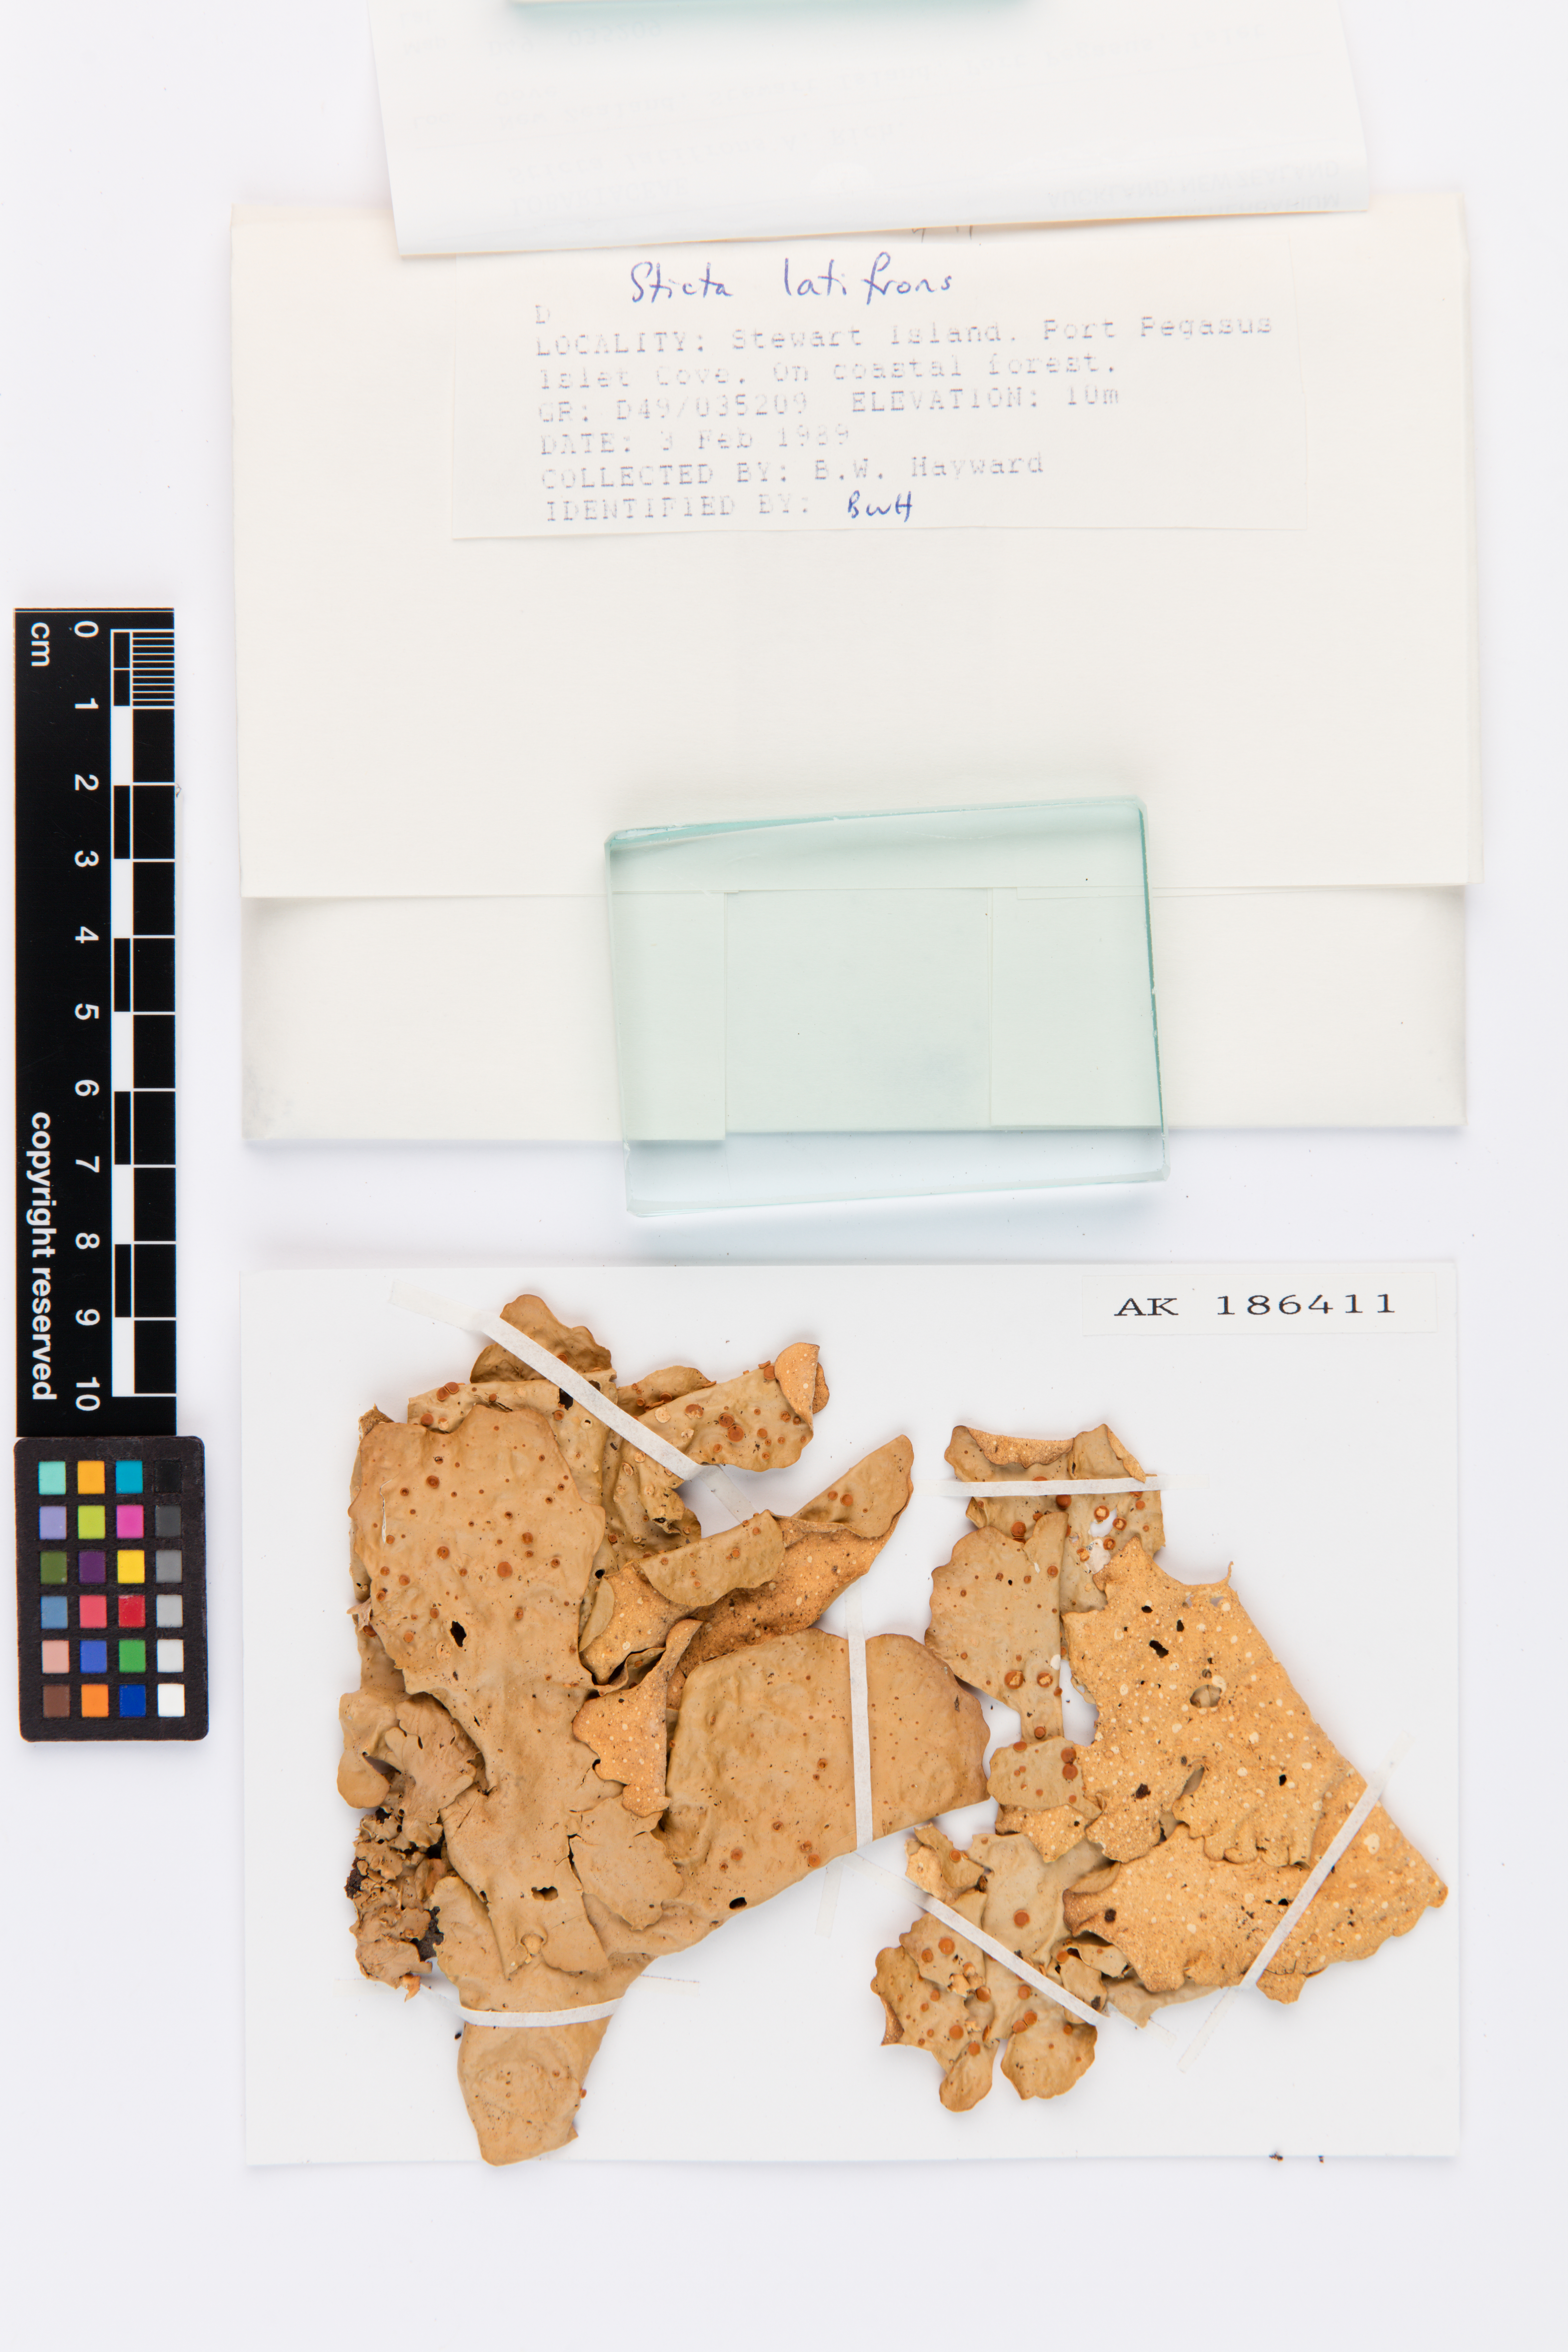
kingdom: Fungi
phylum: Ascomycota
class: Lecanoromycetes
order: Peltigerales
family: Lobariaceae
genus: Sticta
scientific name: Sticta latifrons
